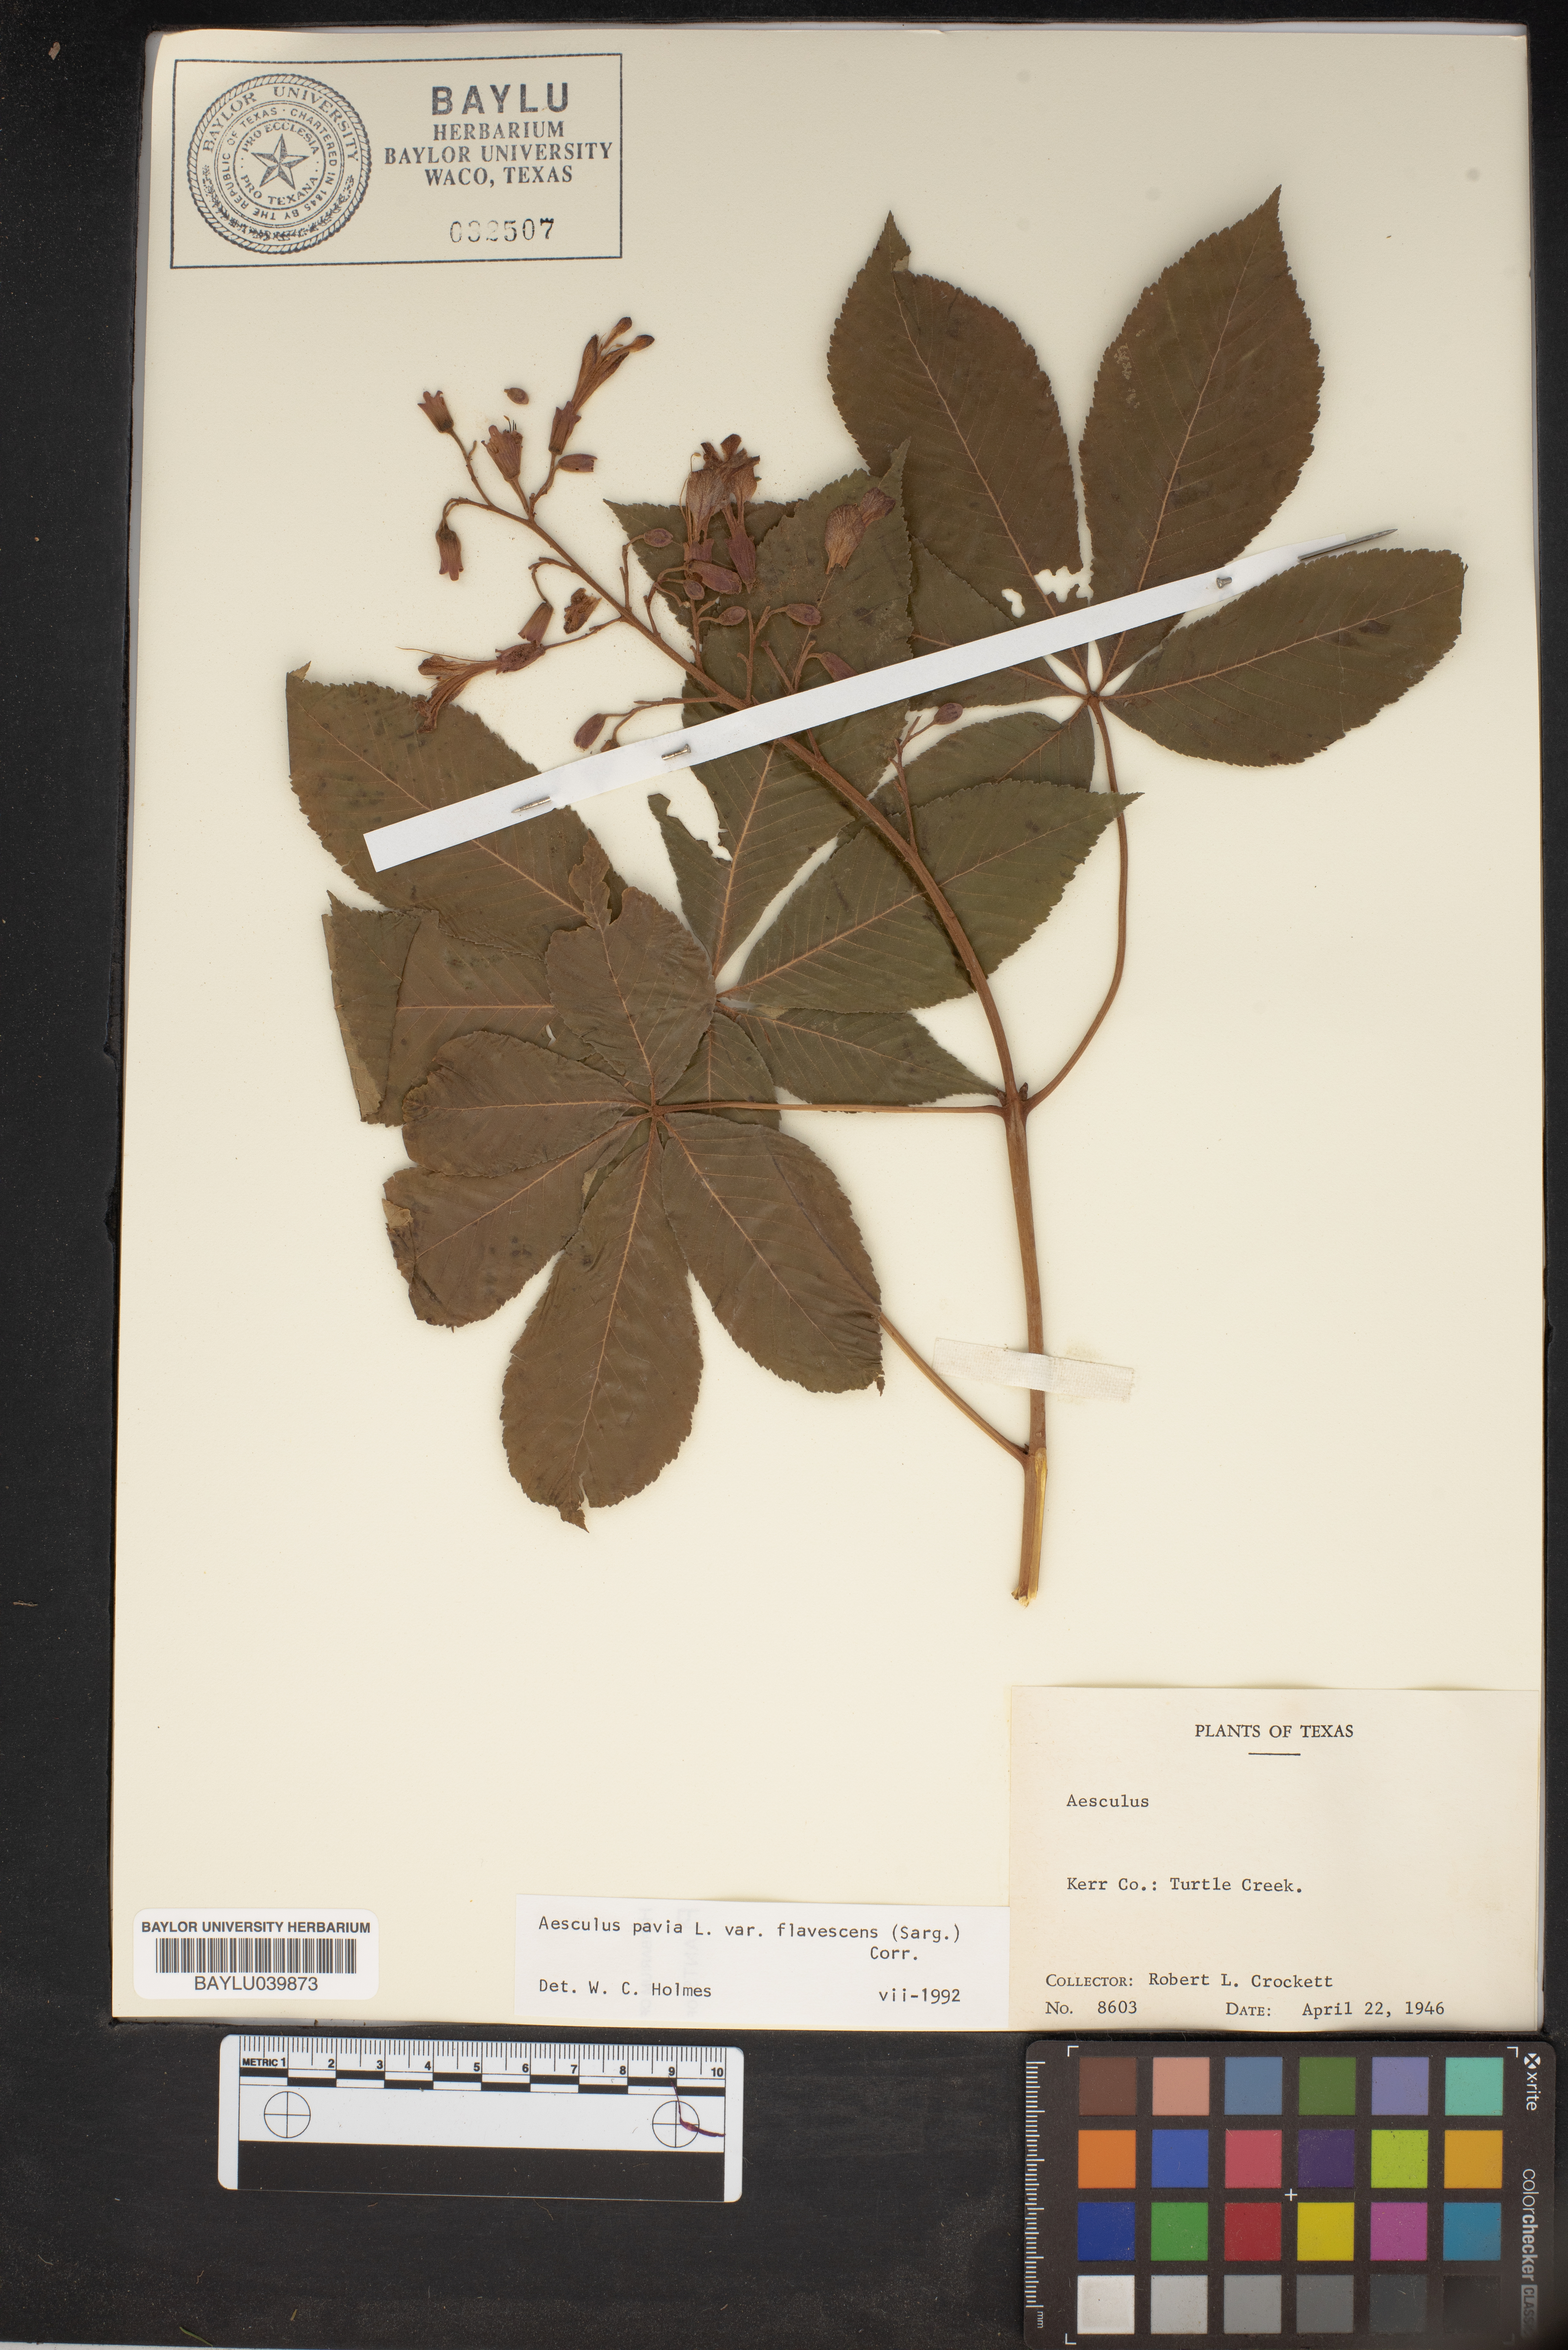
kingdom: Plantae
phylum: Tracheophyta
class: Magnoliopsida
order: Sapindales
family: Sapindaceae
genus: Aesculus
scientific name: Aesculus pavia
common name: Red buckeye
